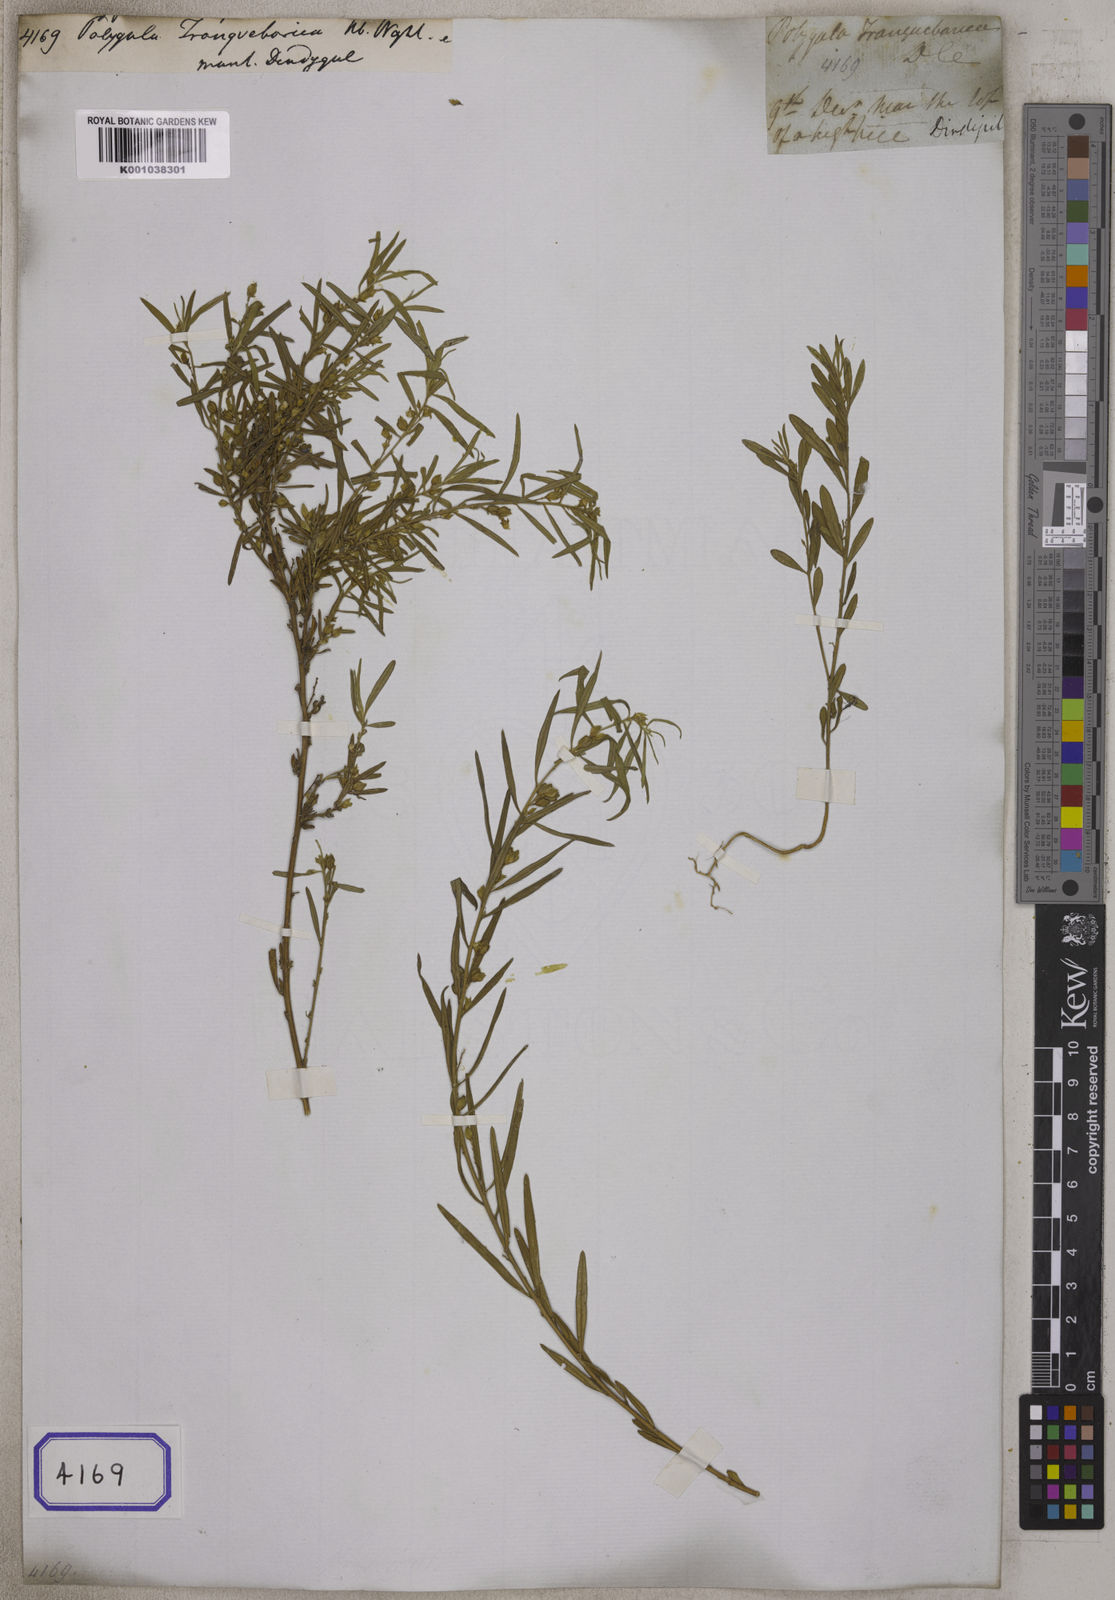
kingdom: Plantae
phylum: Tracheophyta
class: Magnoliopsida
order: Fabales
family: Polygalaceae
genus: Polygala
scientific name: Polygala rosmarinifolia
